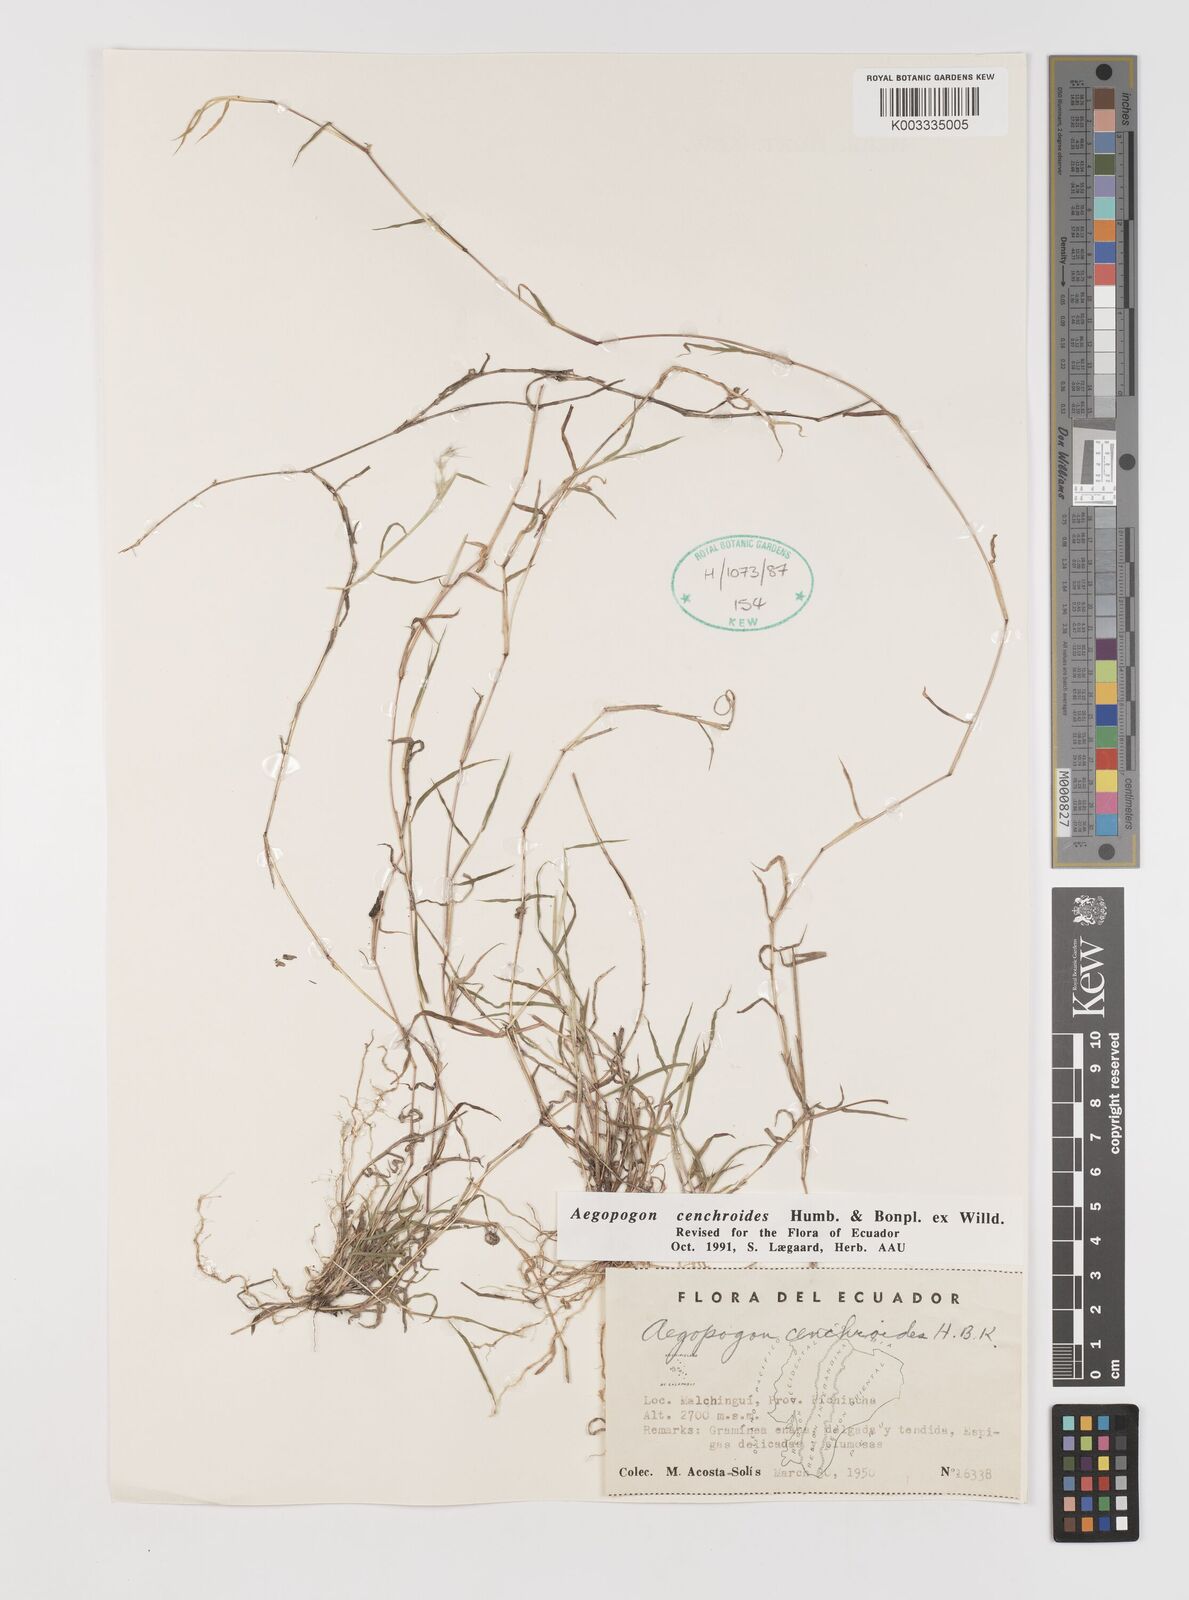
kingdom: Plantae
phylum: Tracheophyta
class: Liliopsida
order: Poales
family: Poaceae
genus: Muhlenbergia
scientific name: Muhlenbergia cenchroides
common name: Relaxgrass
